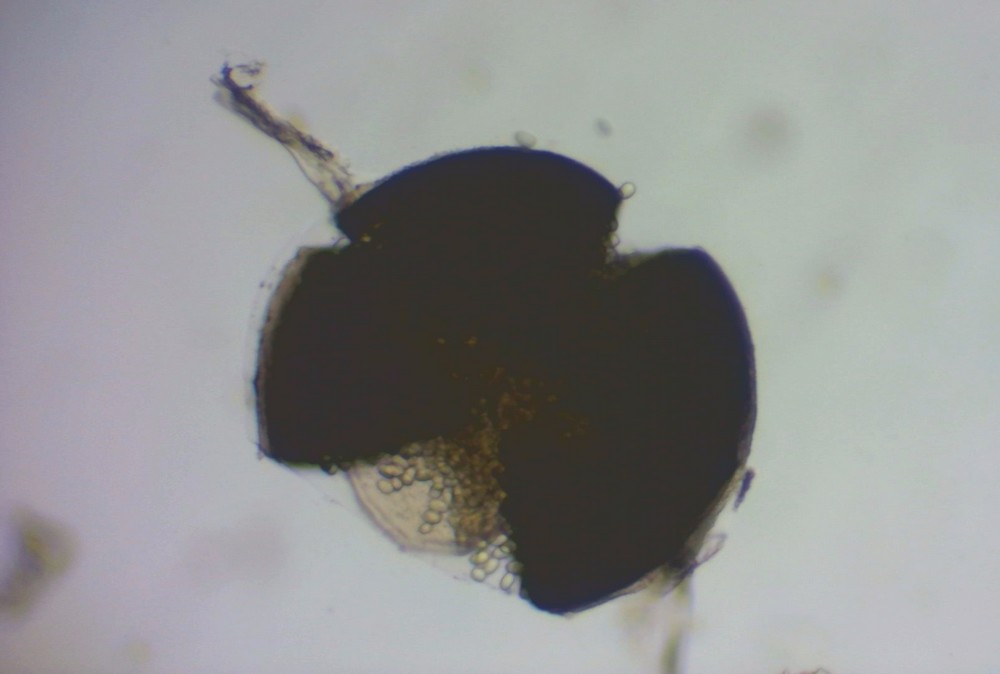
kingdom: Fungi
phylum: Mucoromycota
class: Mucoromycetes
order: Mucorales
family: Mucoraceae
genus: Pilaira
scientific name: Pilaira anomala
